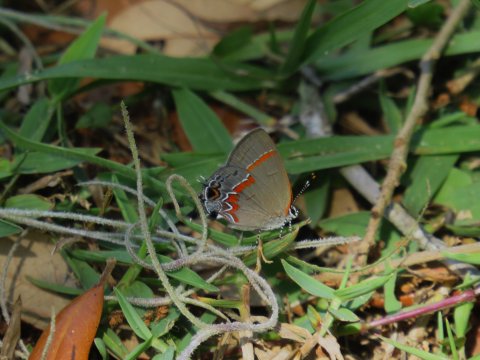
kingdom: Animalia
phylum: Arthropoda
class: Insecta
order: Lepidoptera
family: Lycaenidae
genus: Calycopis
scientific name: Calycopis cecrops
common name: Red-banded Hairstreak
